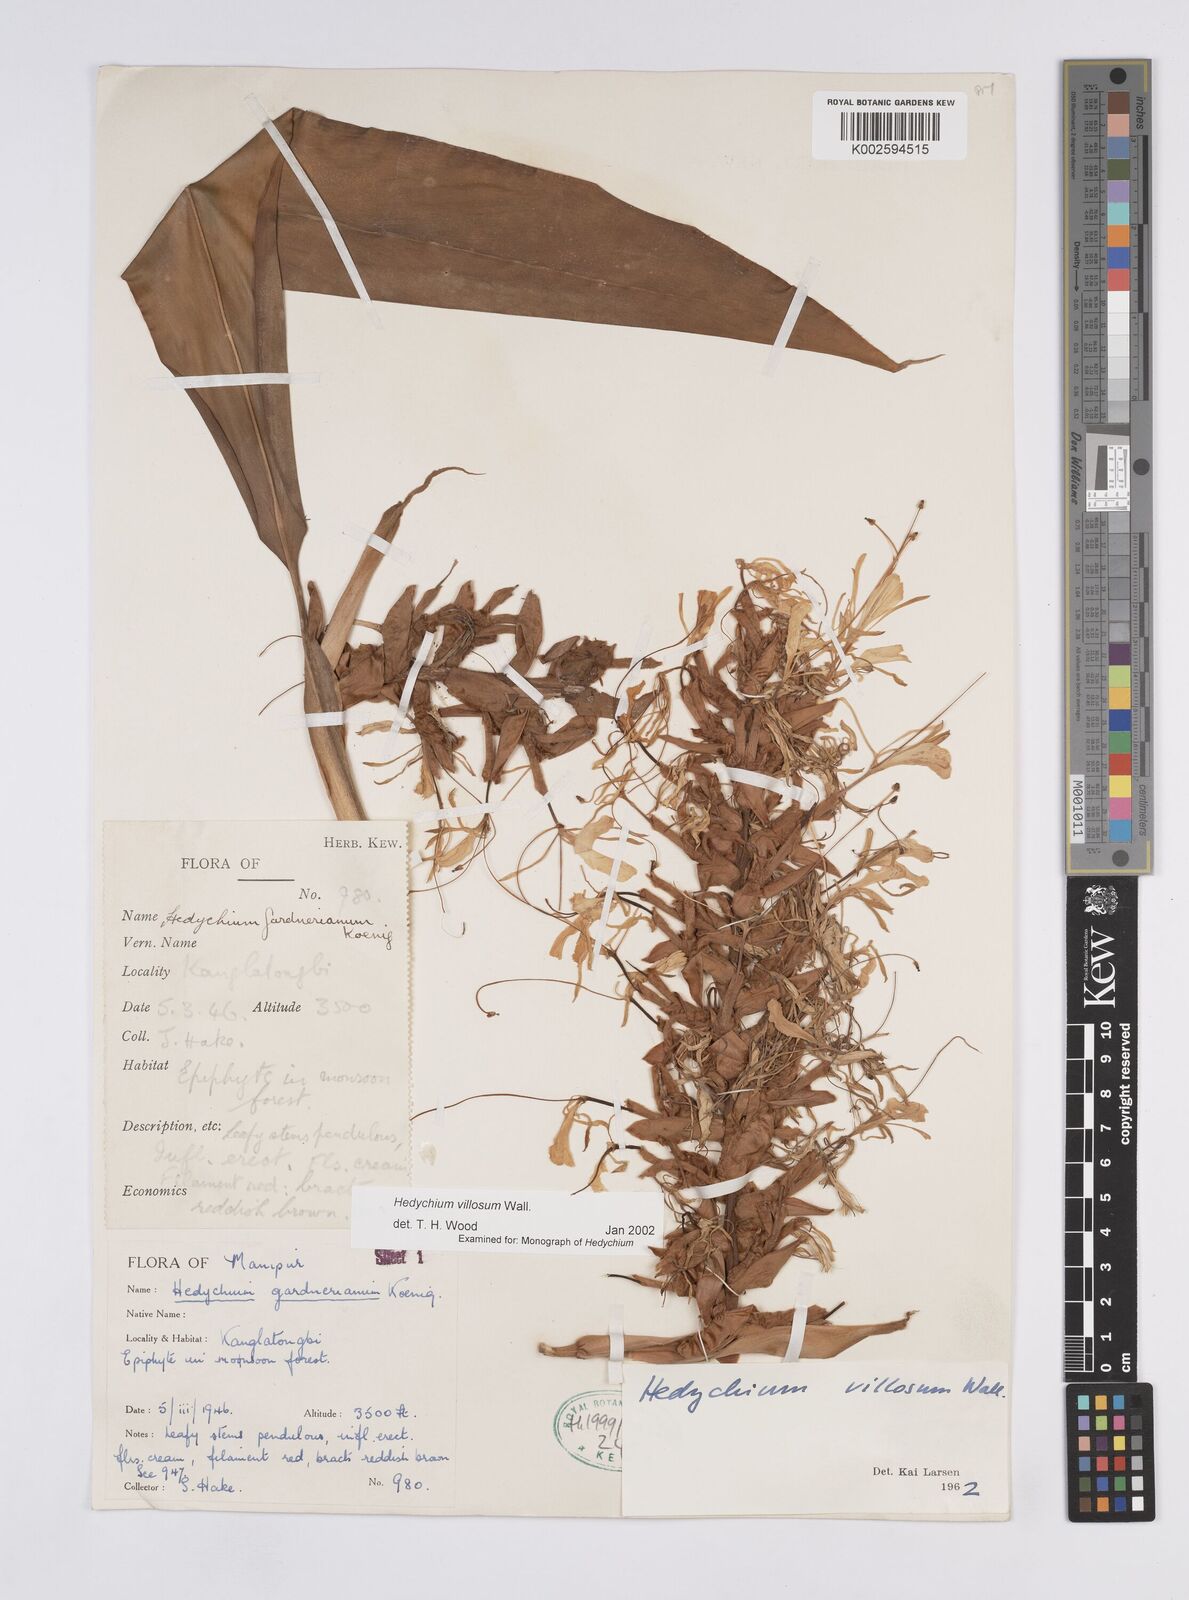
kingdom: Plantae
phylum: Tracheophyta
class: Liliopsida
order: Zingiberales
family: Zingiberaceae
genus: Hedychium
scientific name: Hedychium villosum
